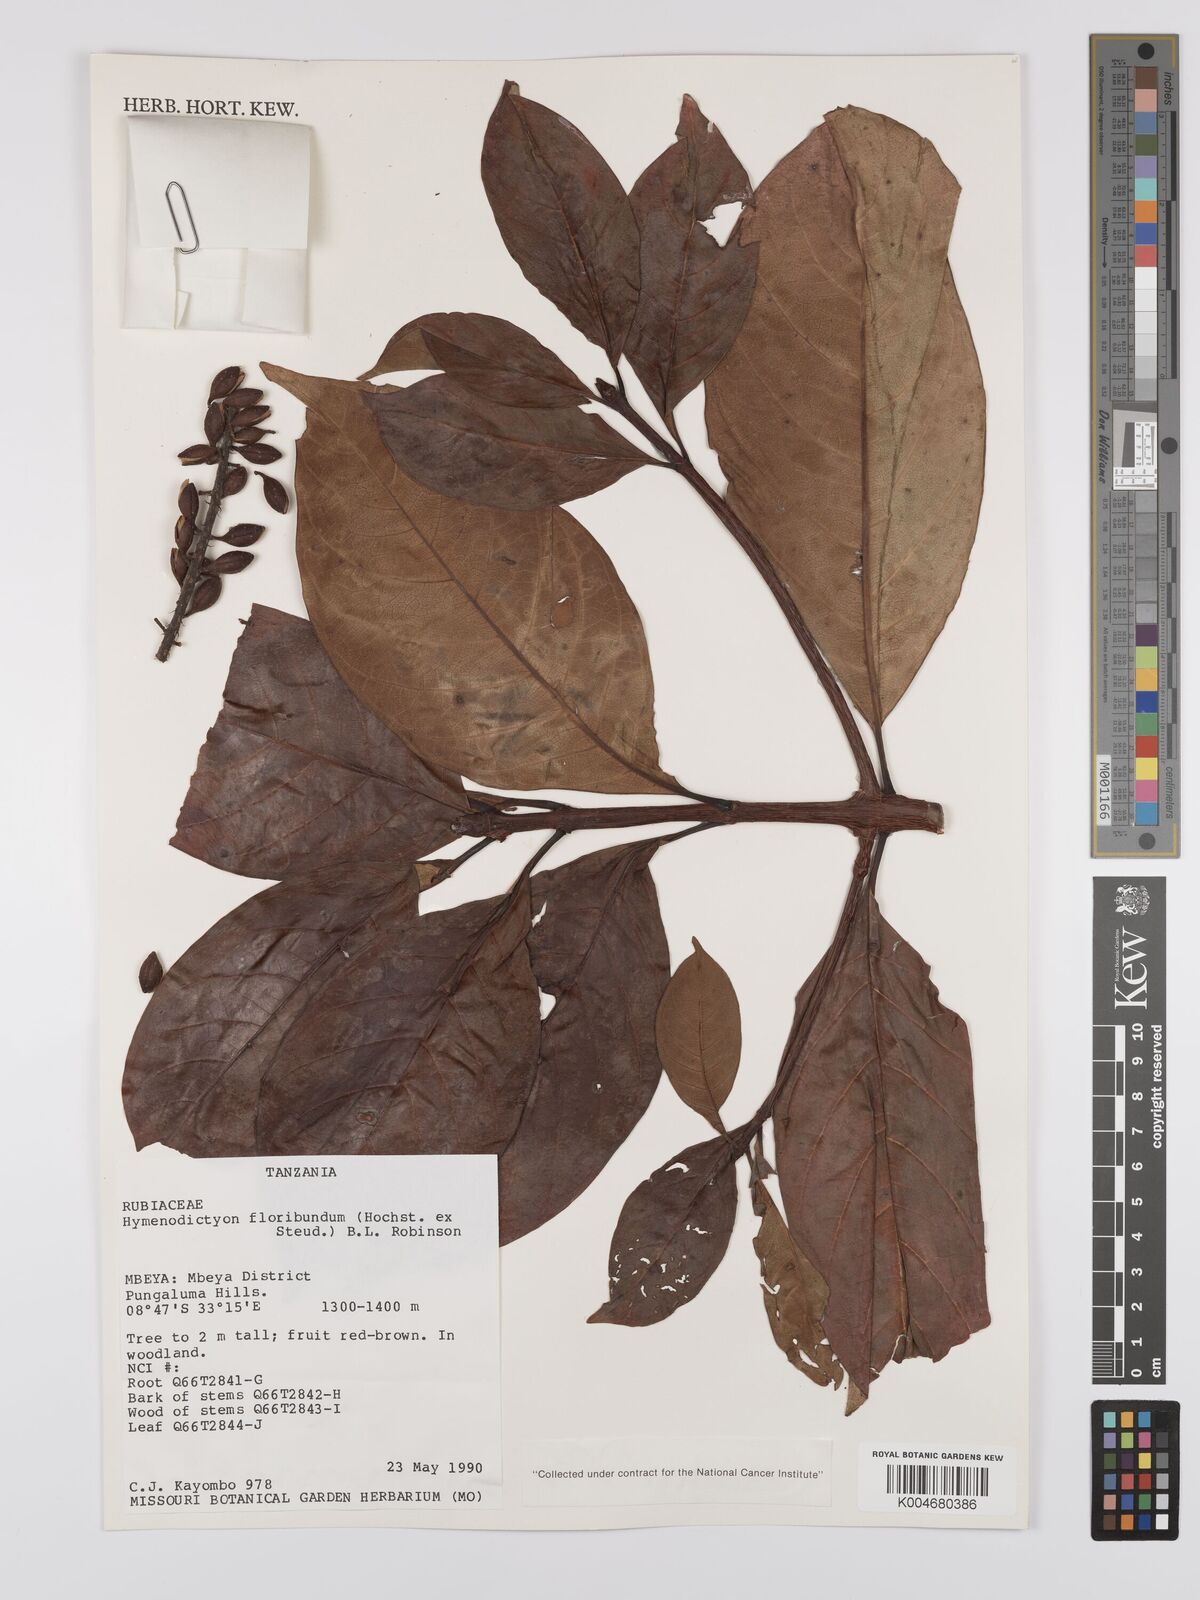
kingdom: Plantae
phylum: Tracheophyta
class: Magnoliopsida
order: Gentianales
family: Rubiaceae
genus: Hymenodictyon
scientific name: Hymenodictyon floribundum
